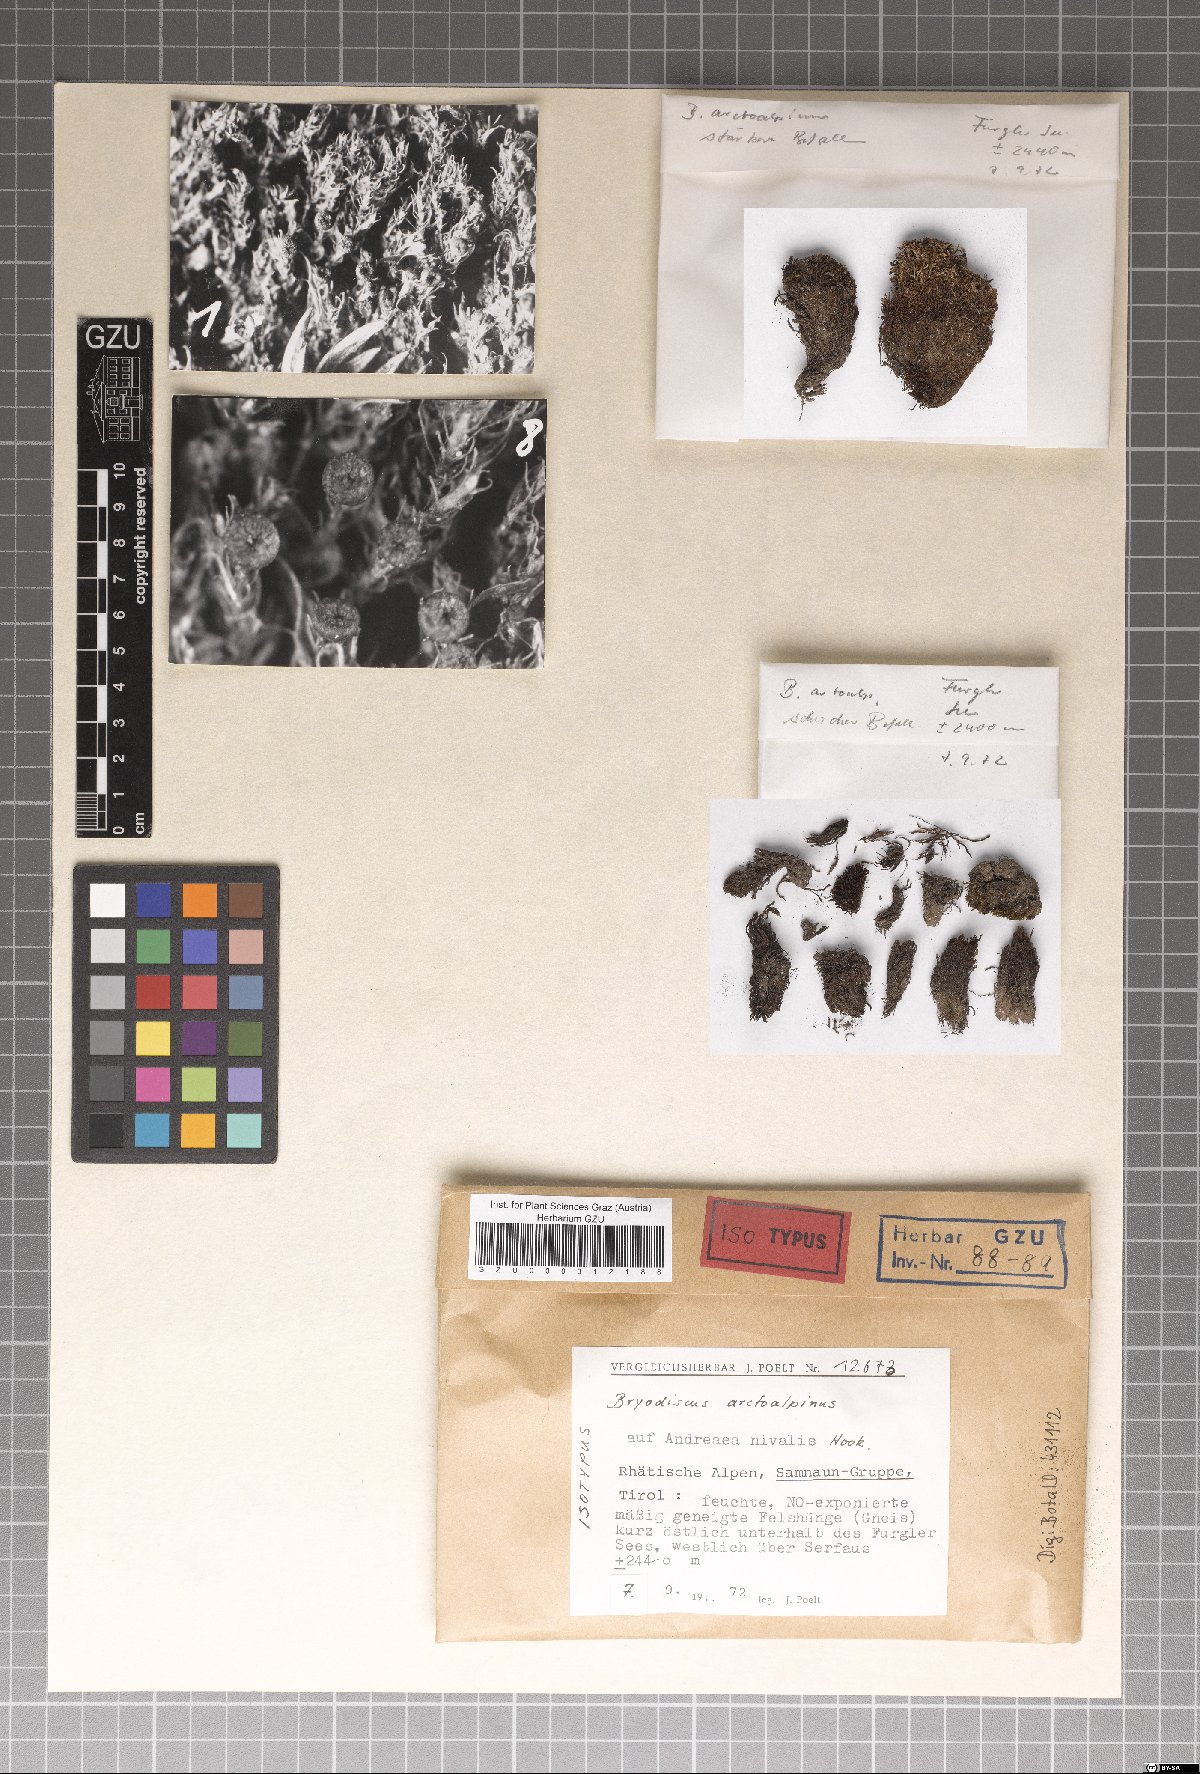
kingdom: Fungi
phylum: Ascomycota
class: Lecanoromycetes
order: Ostropales
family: Odontotremataceae
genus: Sphaeropezia
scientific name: Sphaeropezia arctoalpina
